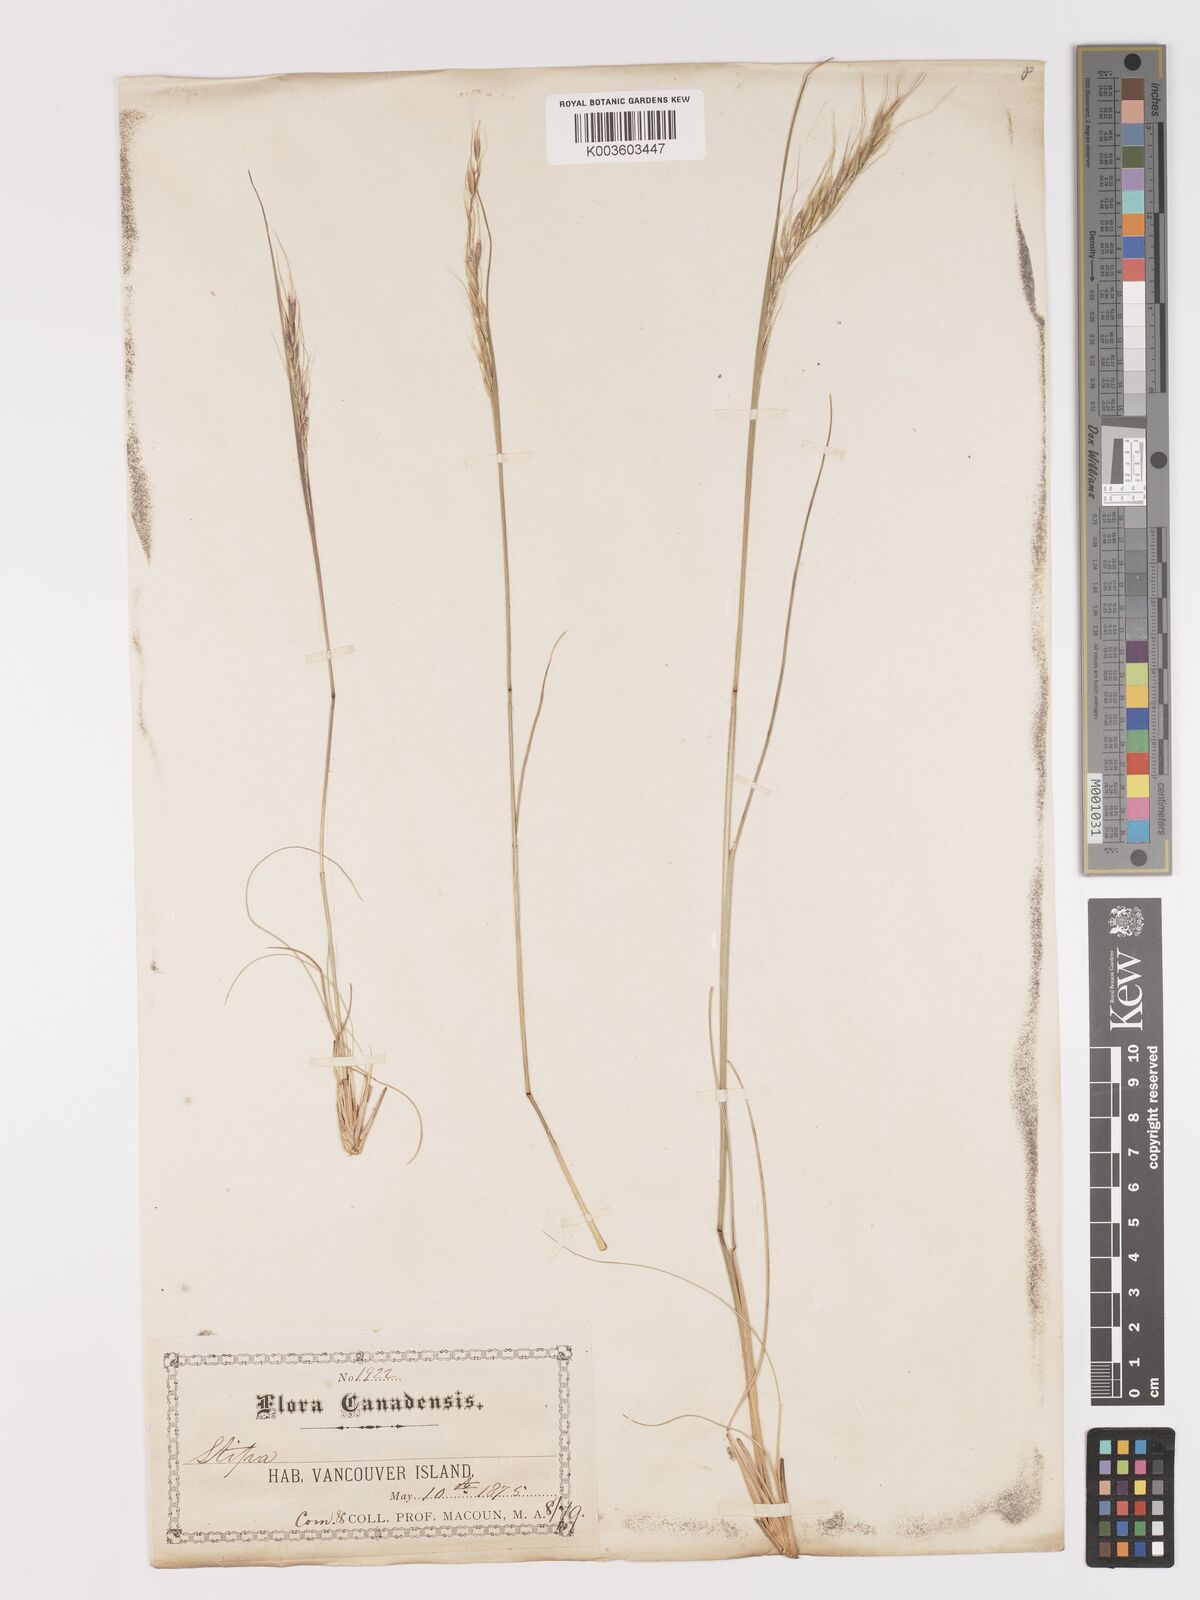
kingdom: Plantae
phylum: Tracheophyta
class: Liliopsida
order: Poales
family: Poaceae
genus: Eriocoma
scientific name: Eriocoma nelsonii
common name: Nelson's needlegrass
